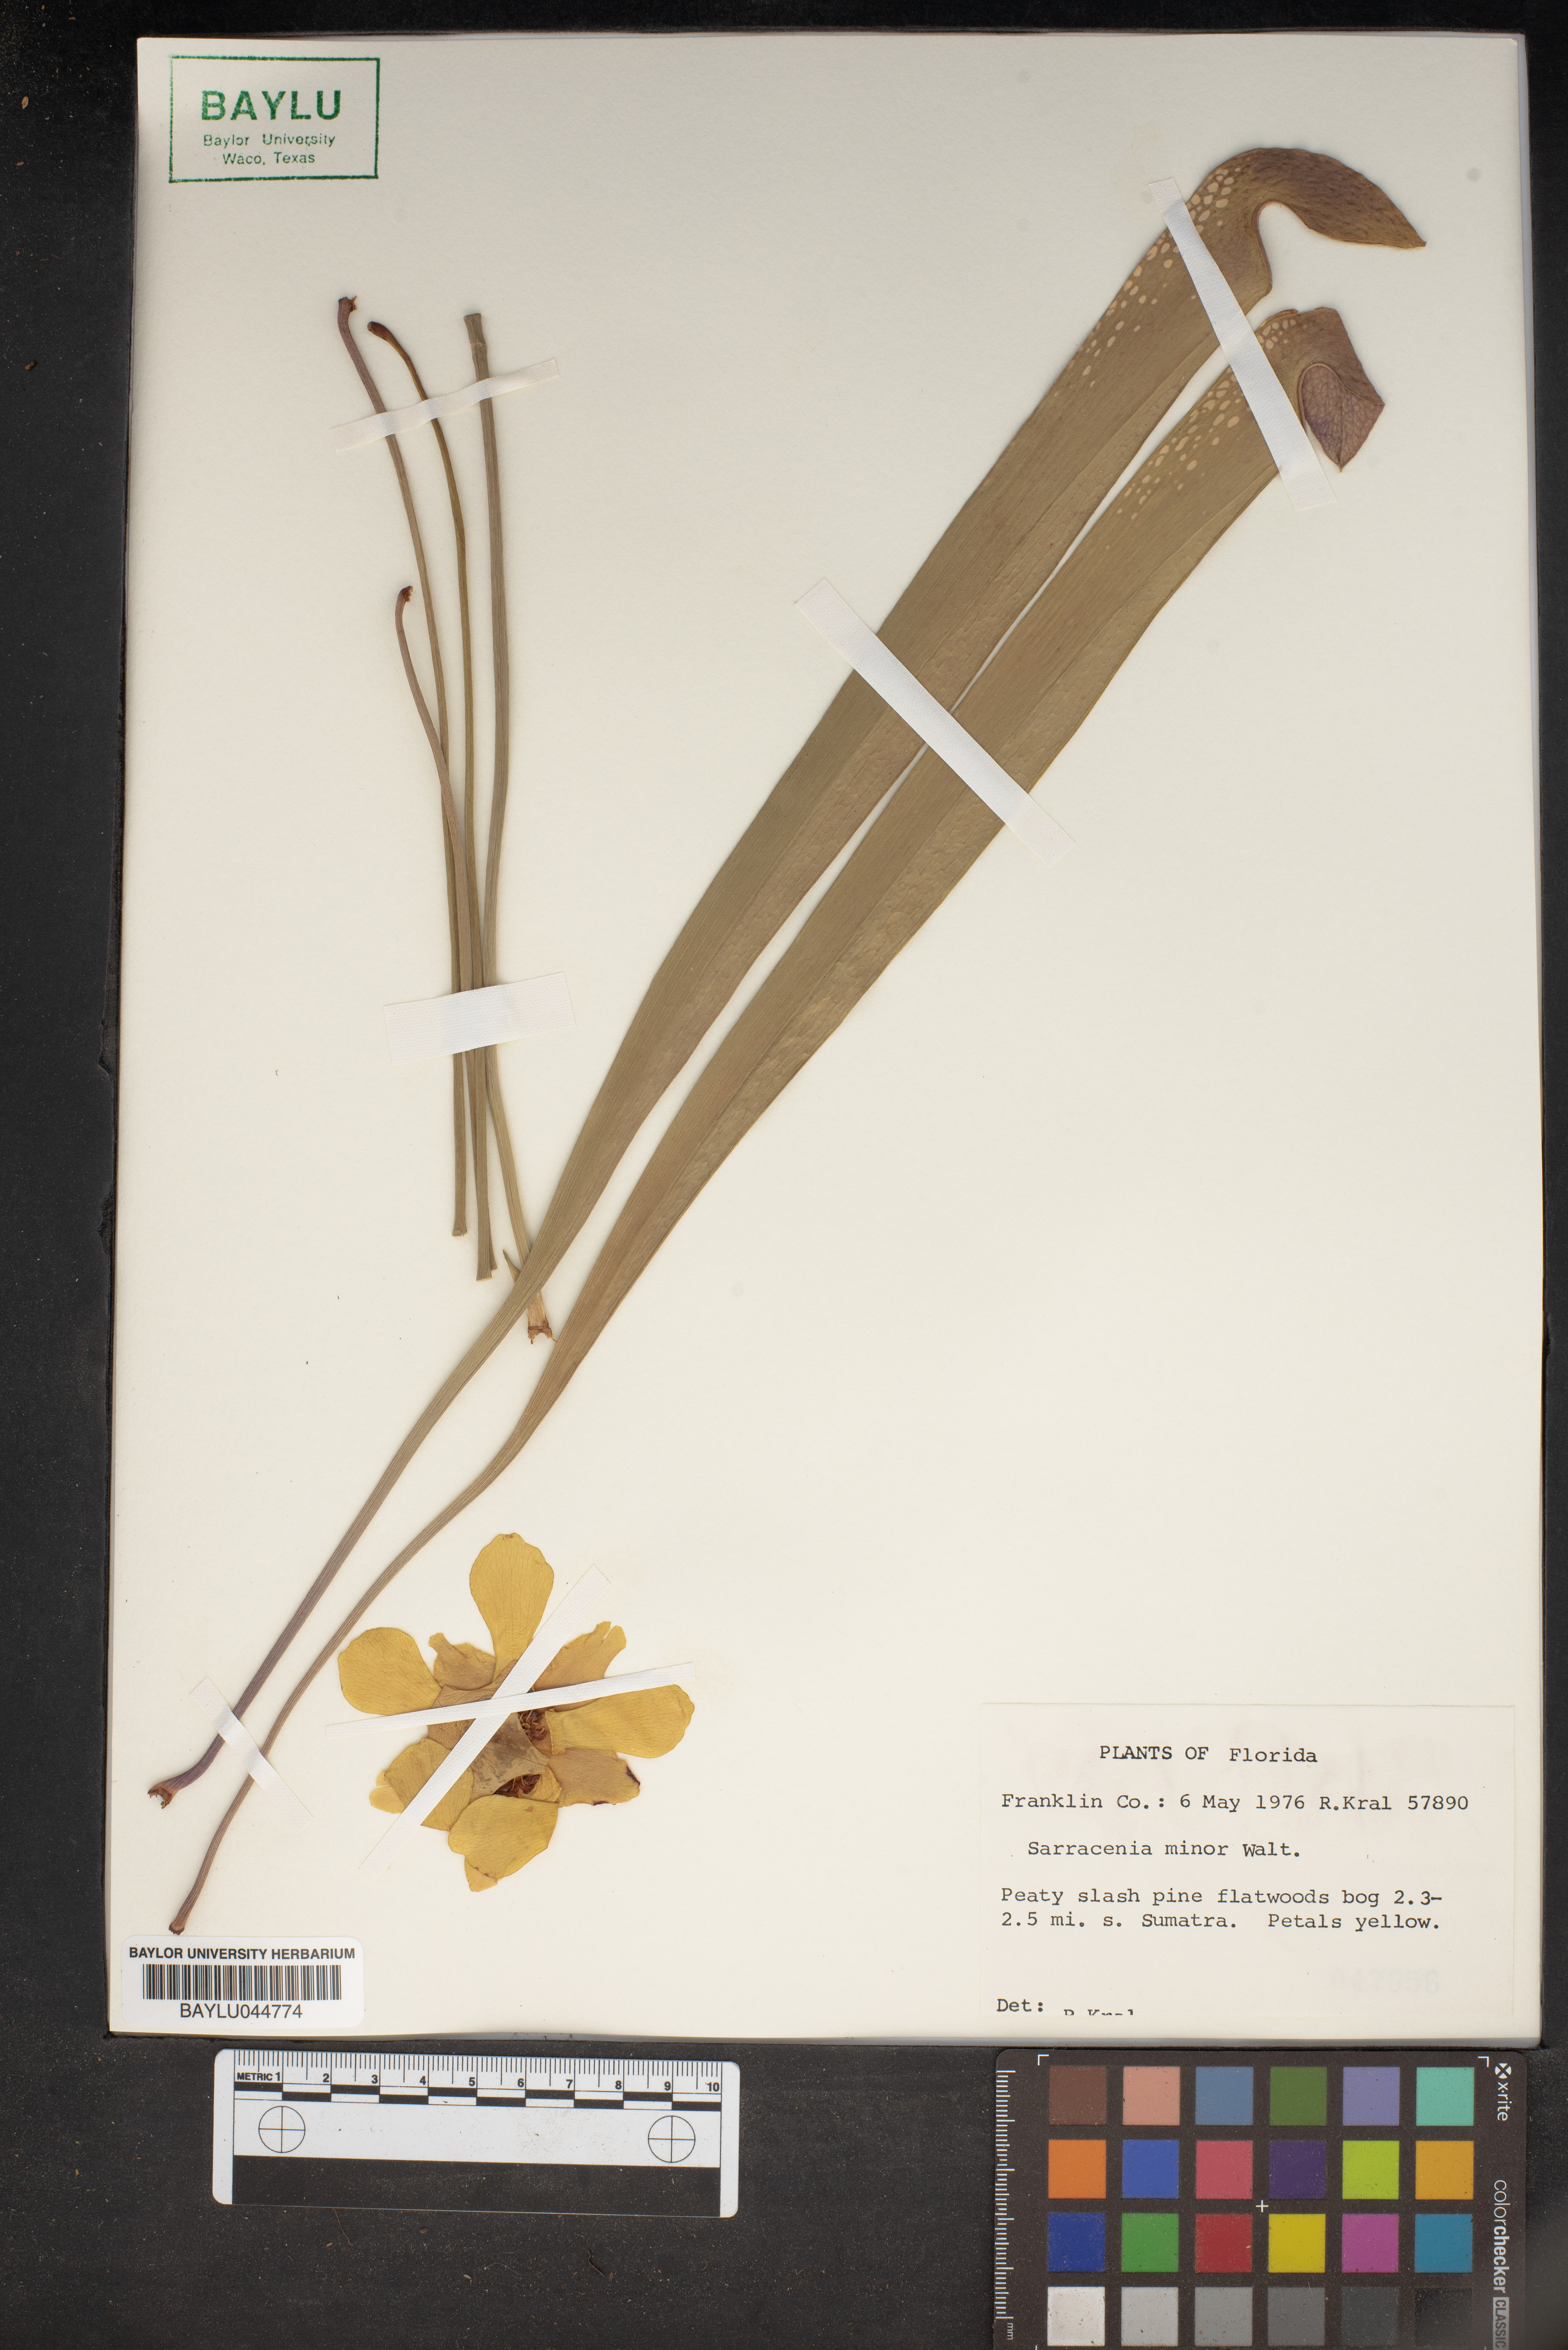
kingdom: Plantae
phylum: Tracheophyta
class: Magnoliopsida
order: Ericales
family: Sarraceniaceae
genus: Sarracenia
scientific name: Sarracenia minor
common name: Rainhat-trumpet
